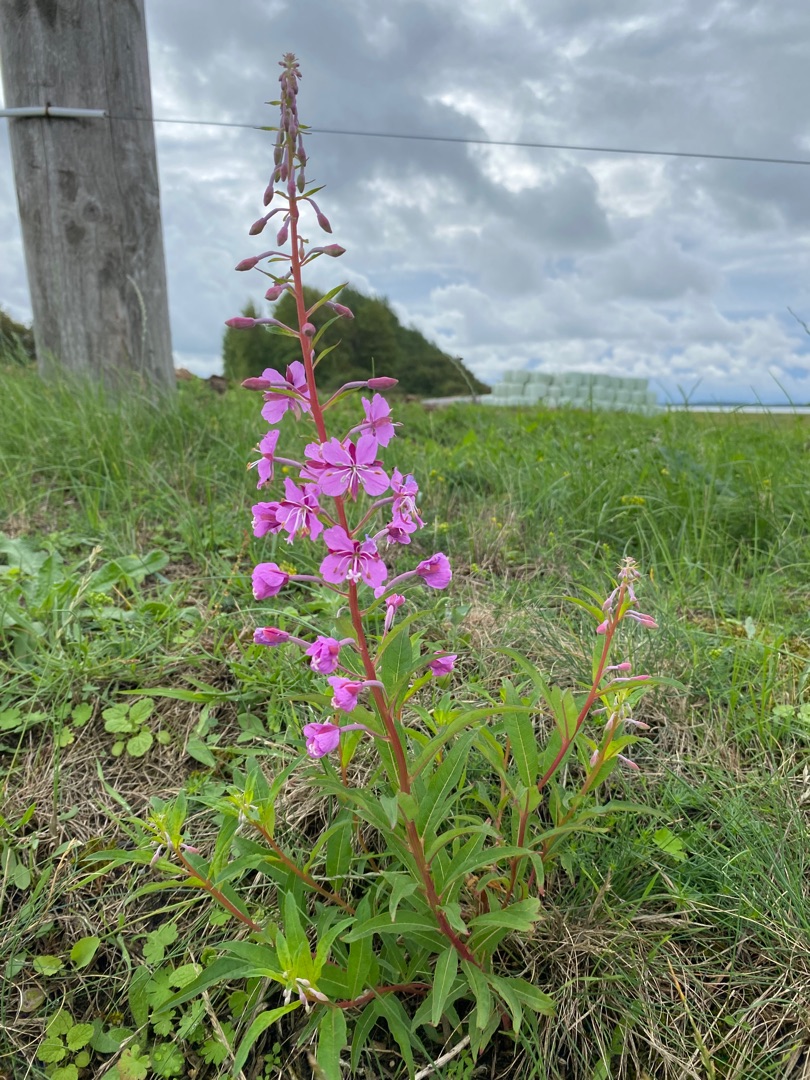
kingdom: Plantae
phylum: Tracheophyta
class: Magnoliopsida
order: Myrtales
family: Onagraceae
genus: Chamaenerion
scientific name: Chamaenerion angustifolium
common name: Gederams
